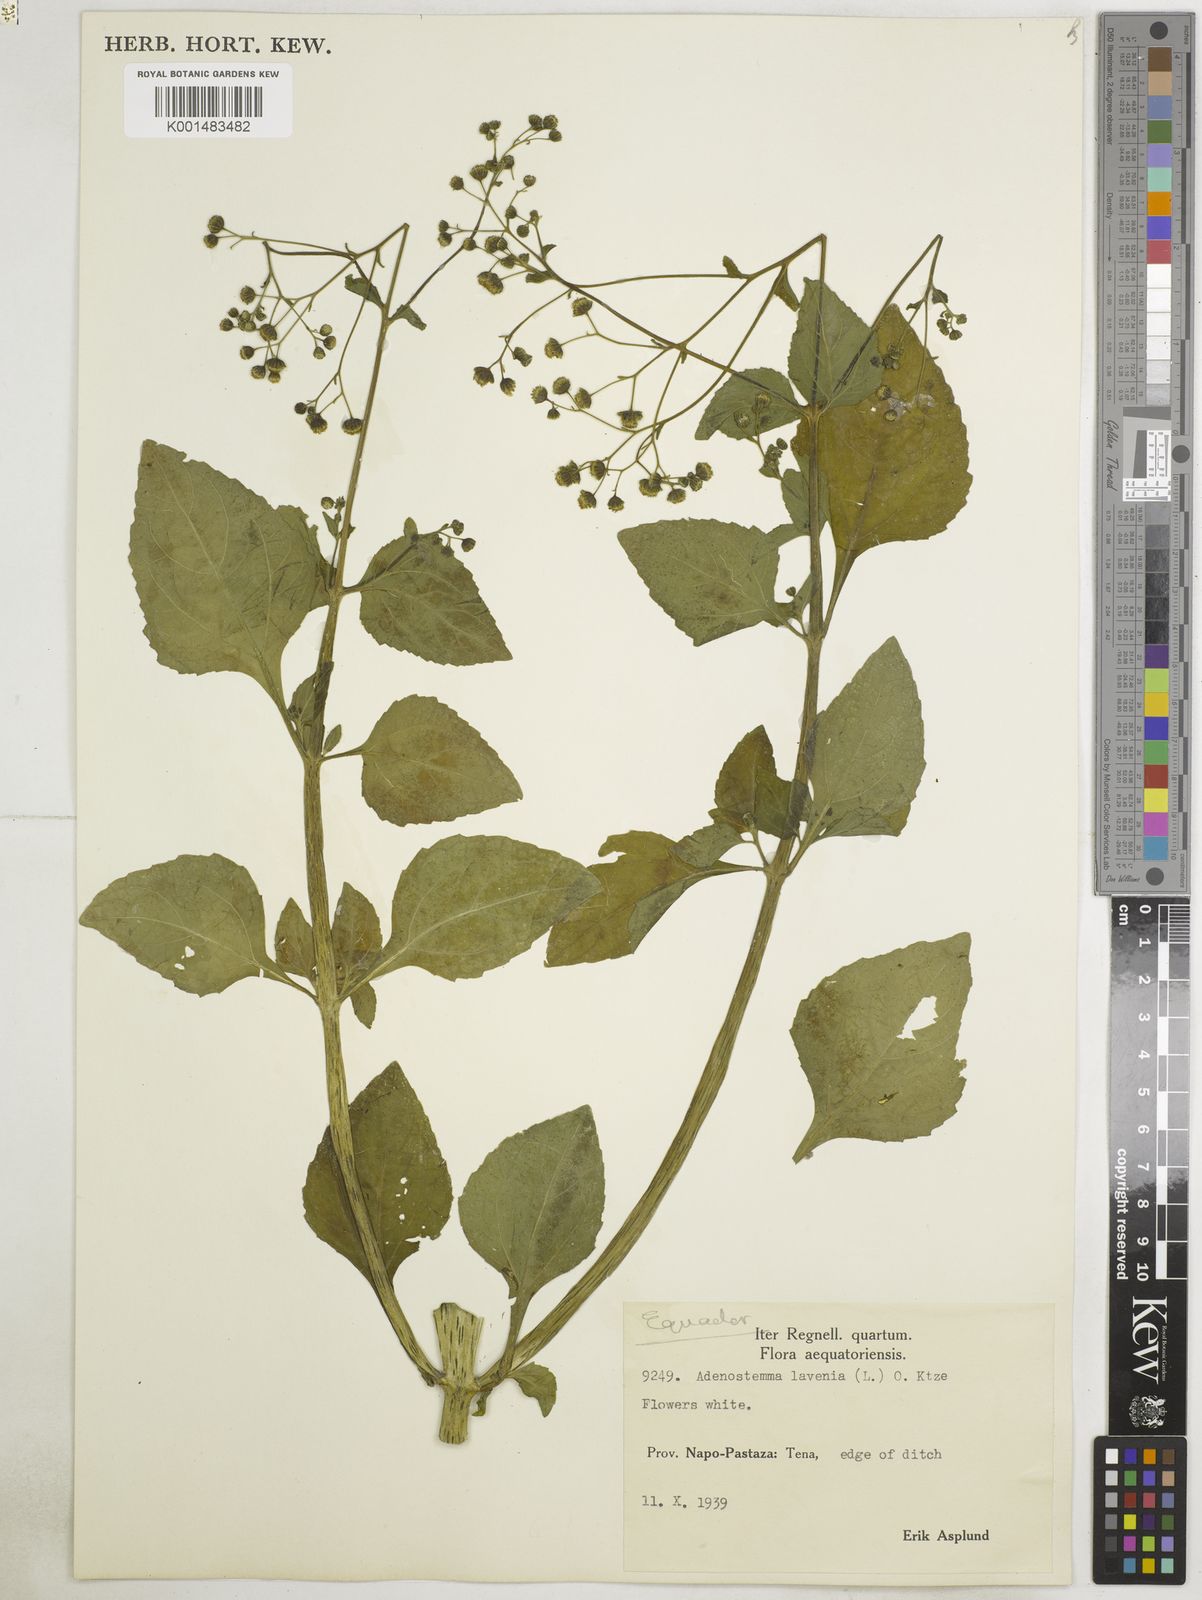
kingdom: Plantae
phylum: Tracheophyta
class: Magnoliopsida
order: Asterales
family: Asteraceae
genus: Adenostemma
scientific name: Adenostemma lavenia
